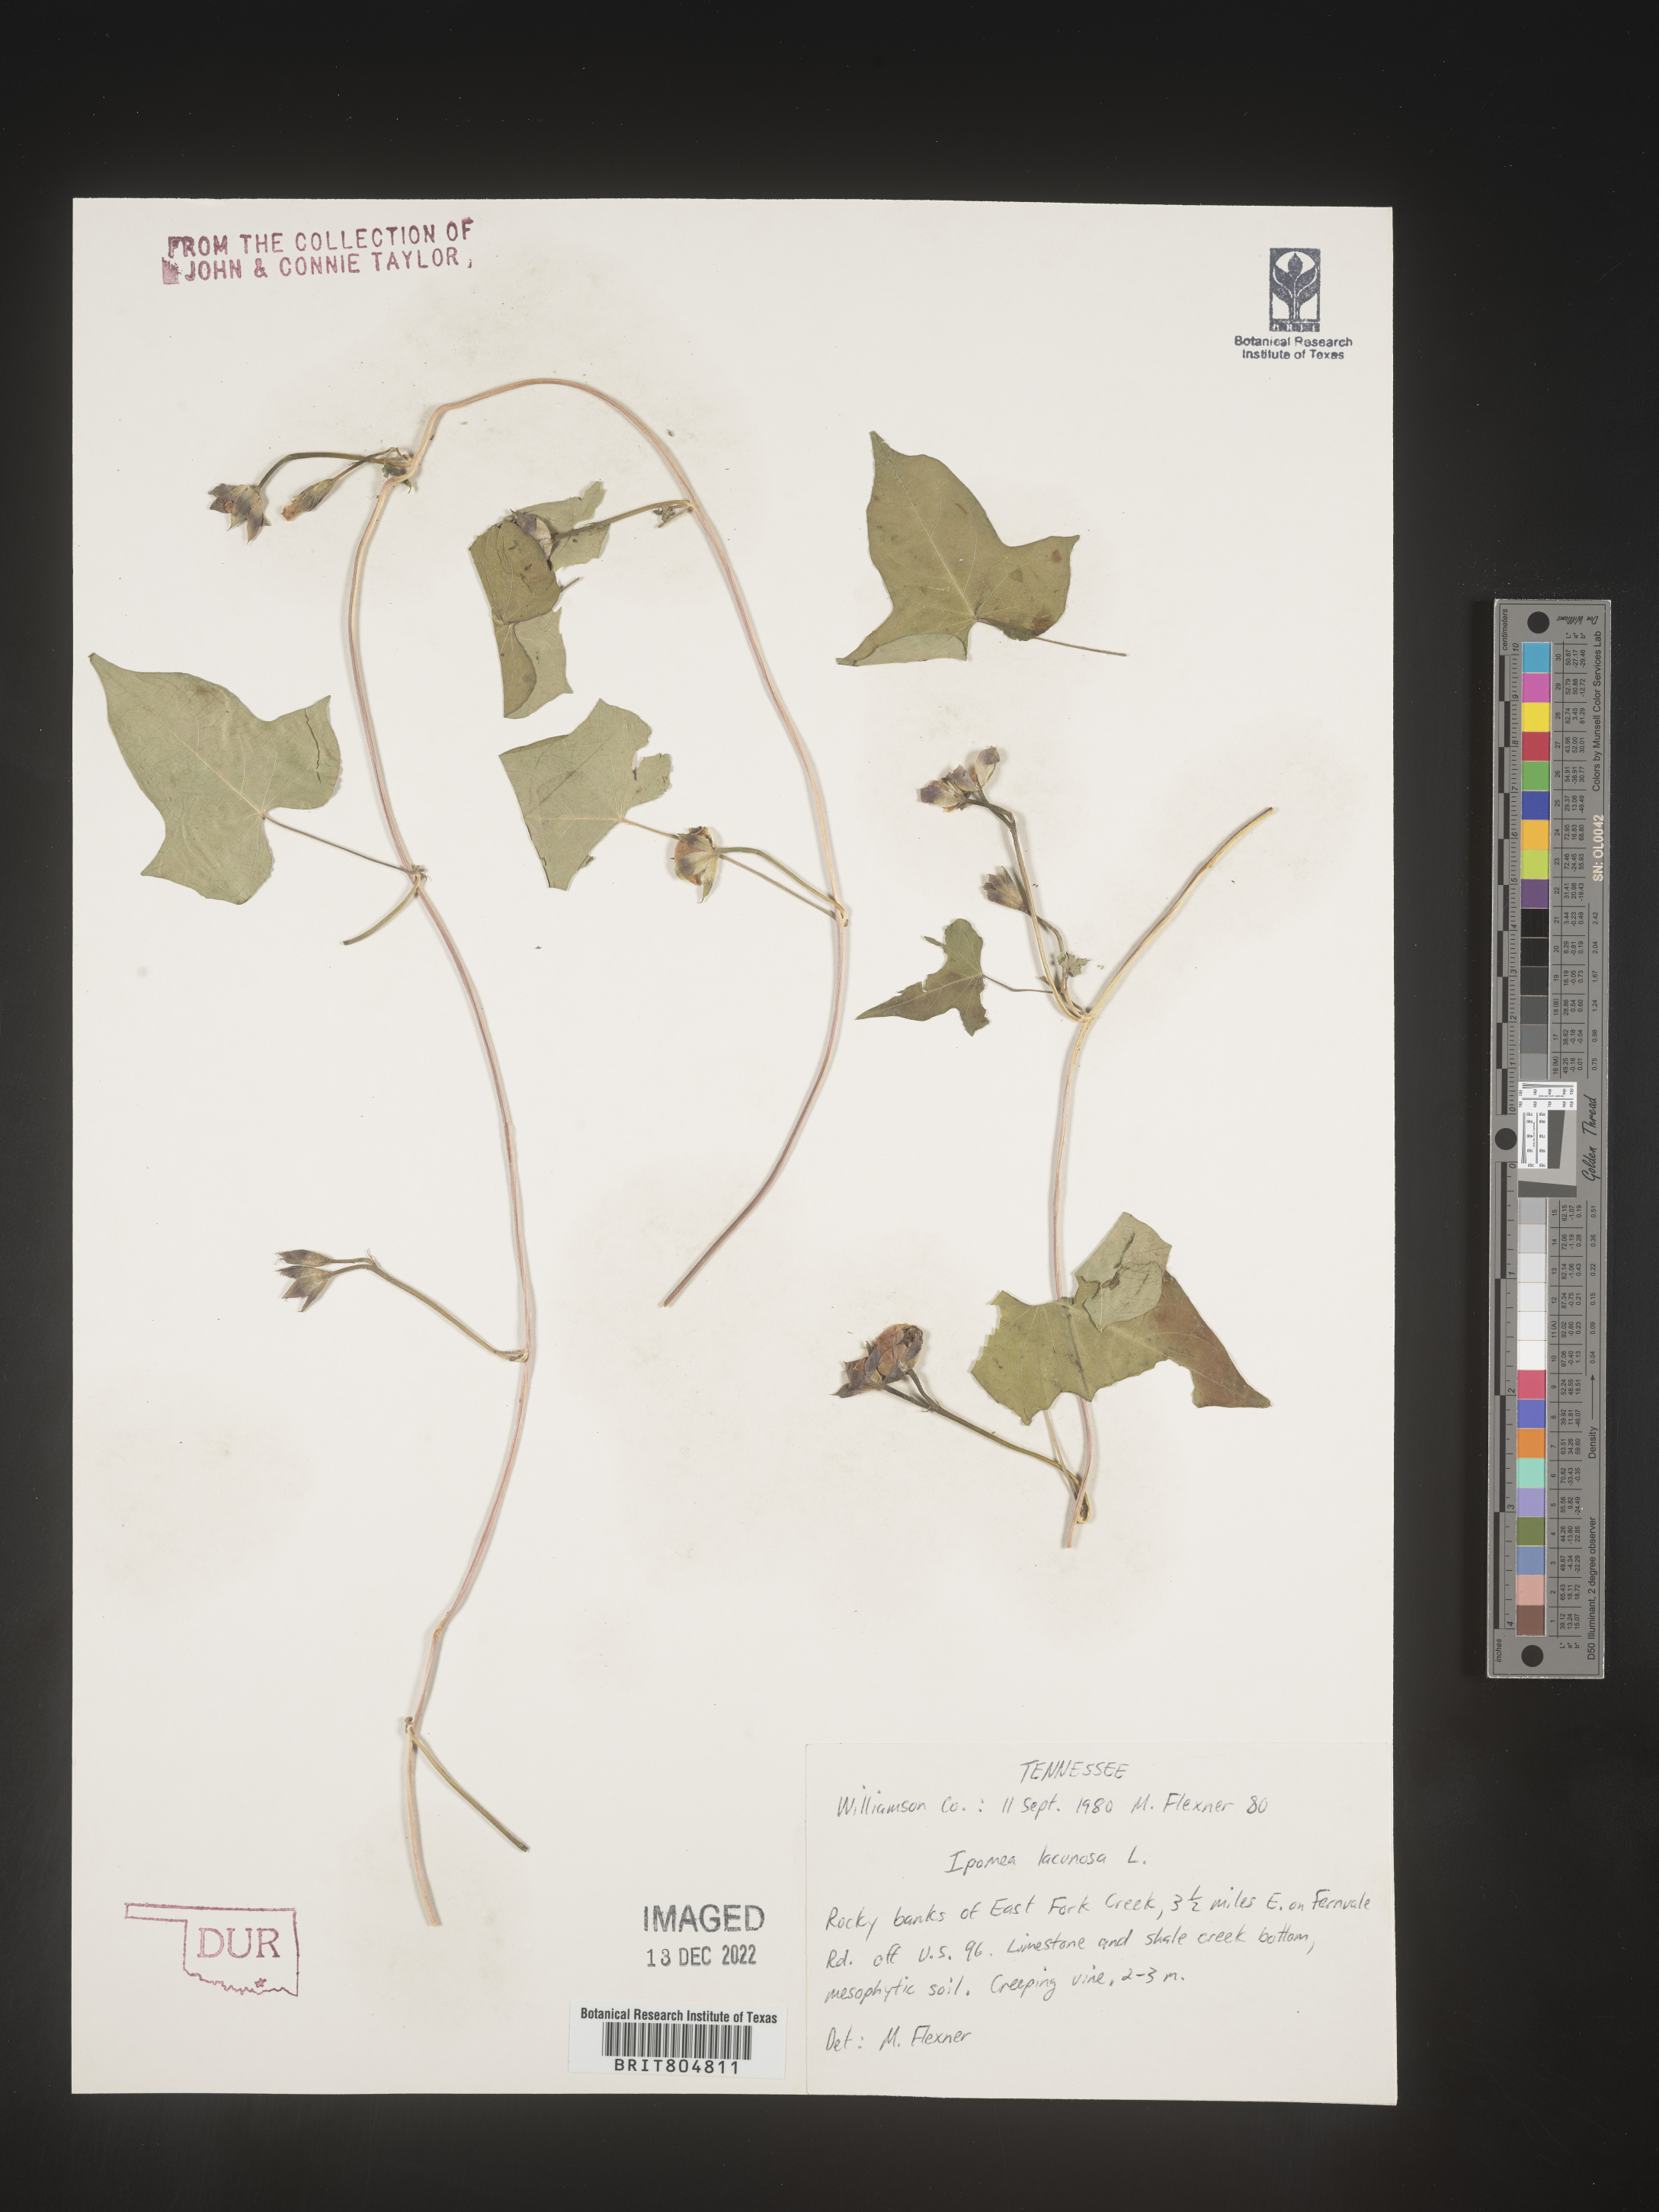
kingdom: Plantae
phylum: Tracheophyta
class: Magnoliopsida
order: Solanales
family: Convolvulaceae
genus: Ipomoea
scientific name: Ipomoea lacunosa
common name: White morning-glory
